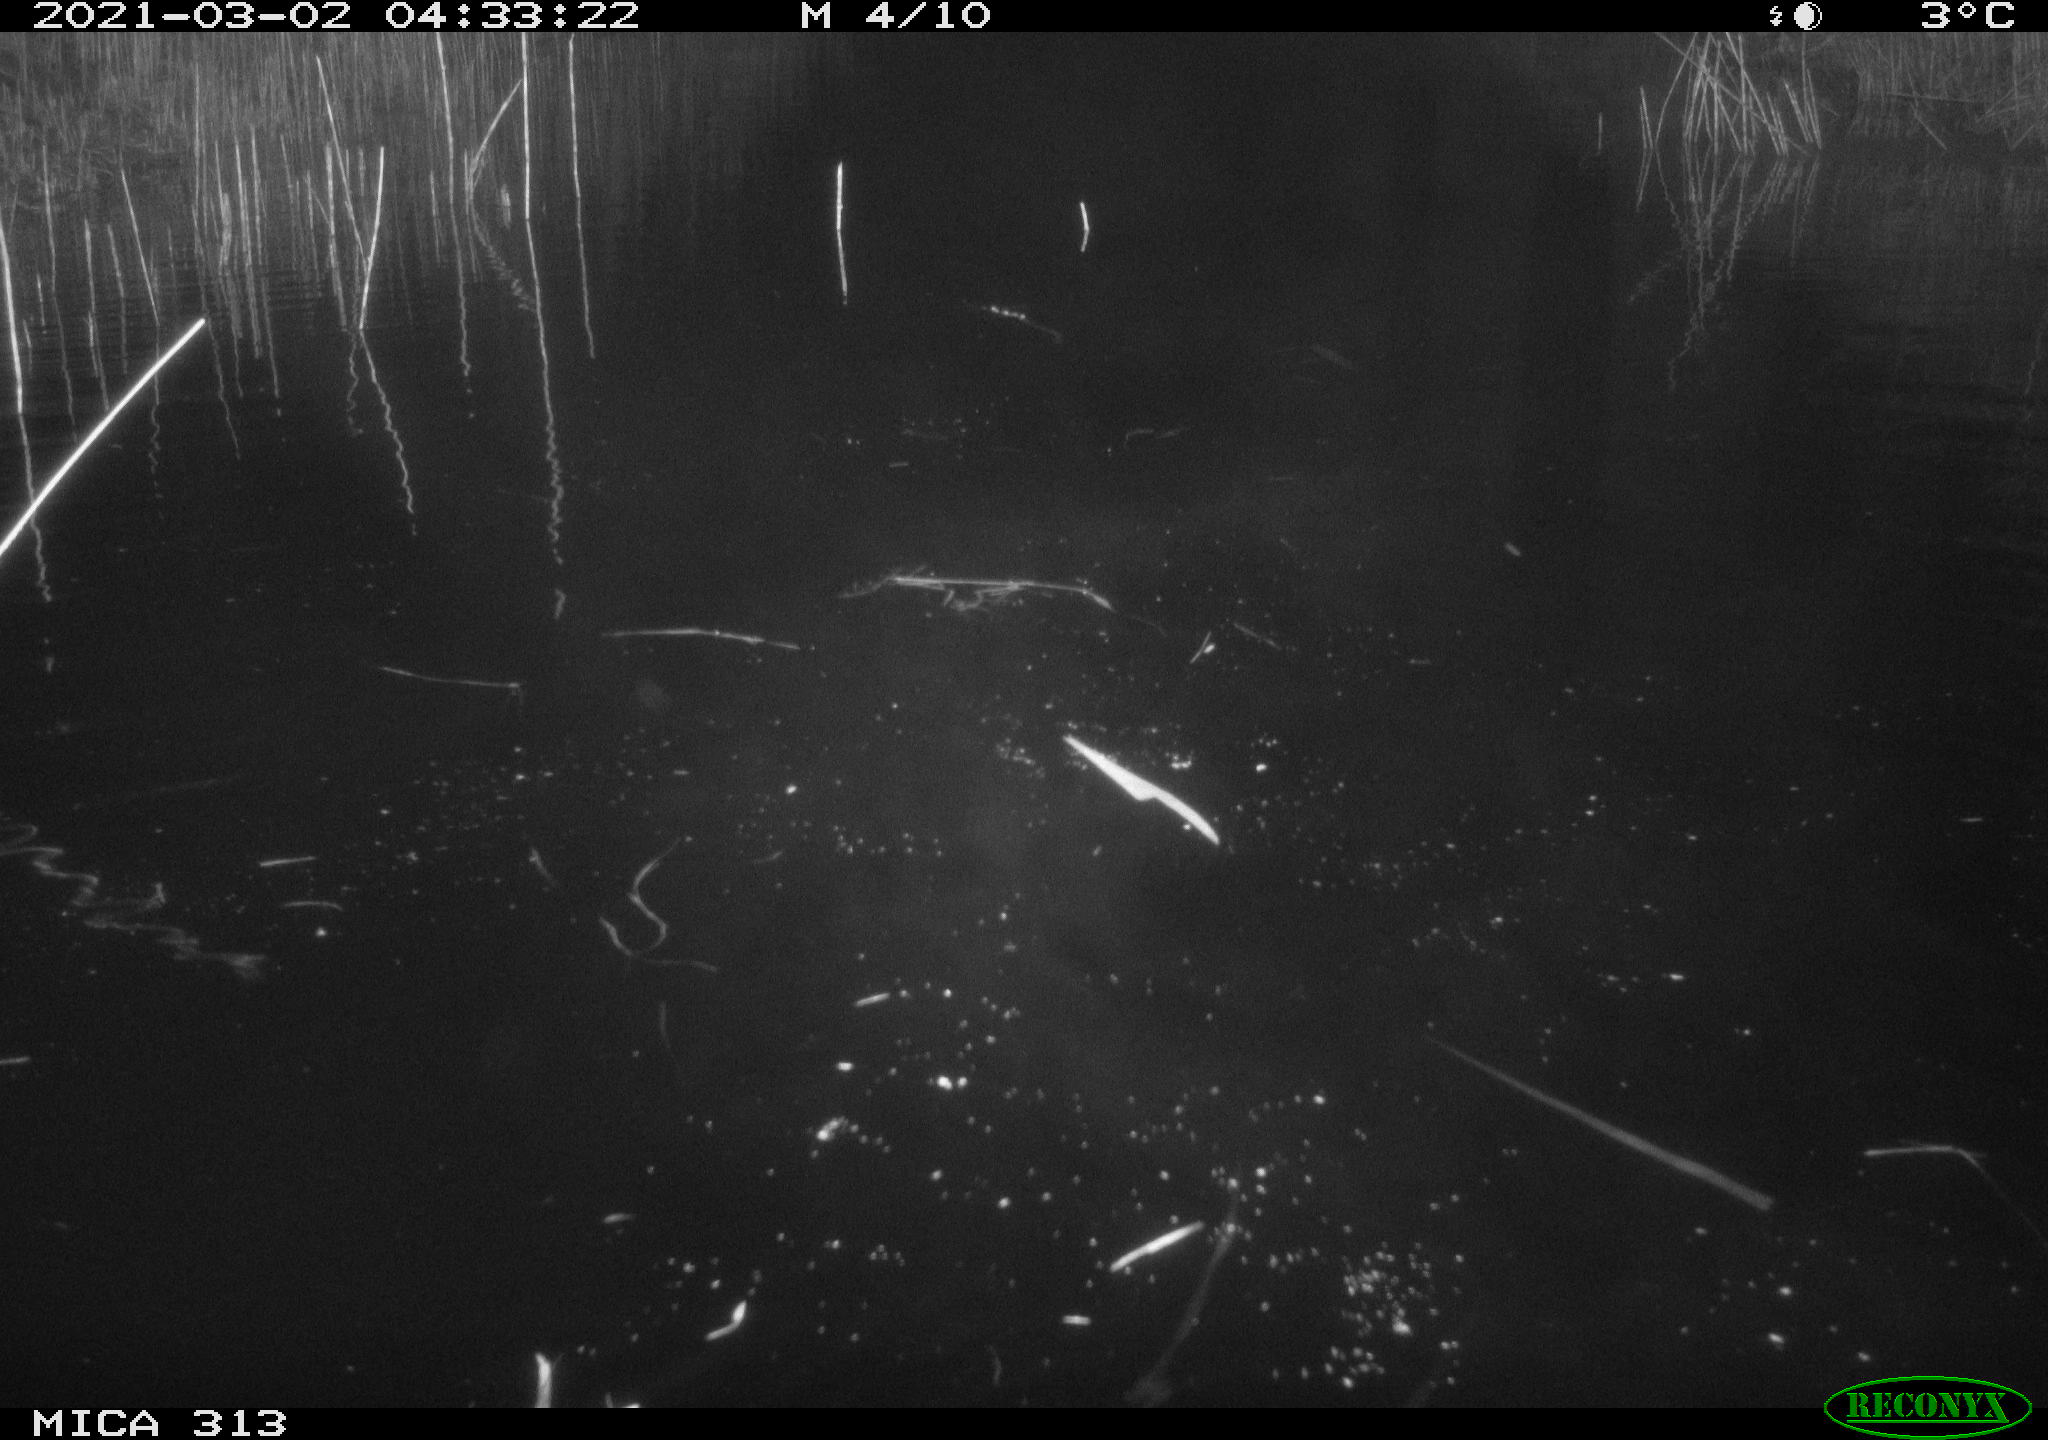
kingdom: Animalia
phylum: Chordata
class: Aves
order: Anseriformes
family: Anatidae
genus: Anas
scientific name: Anas
